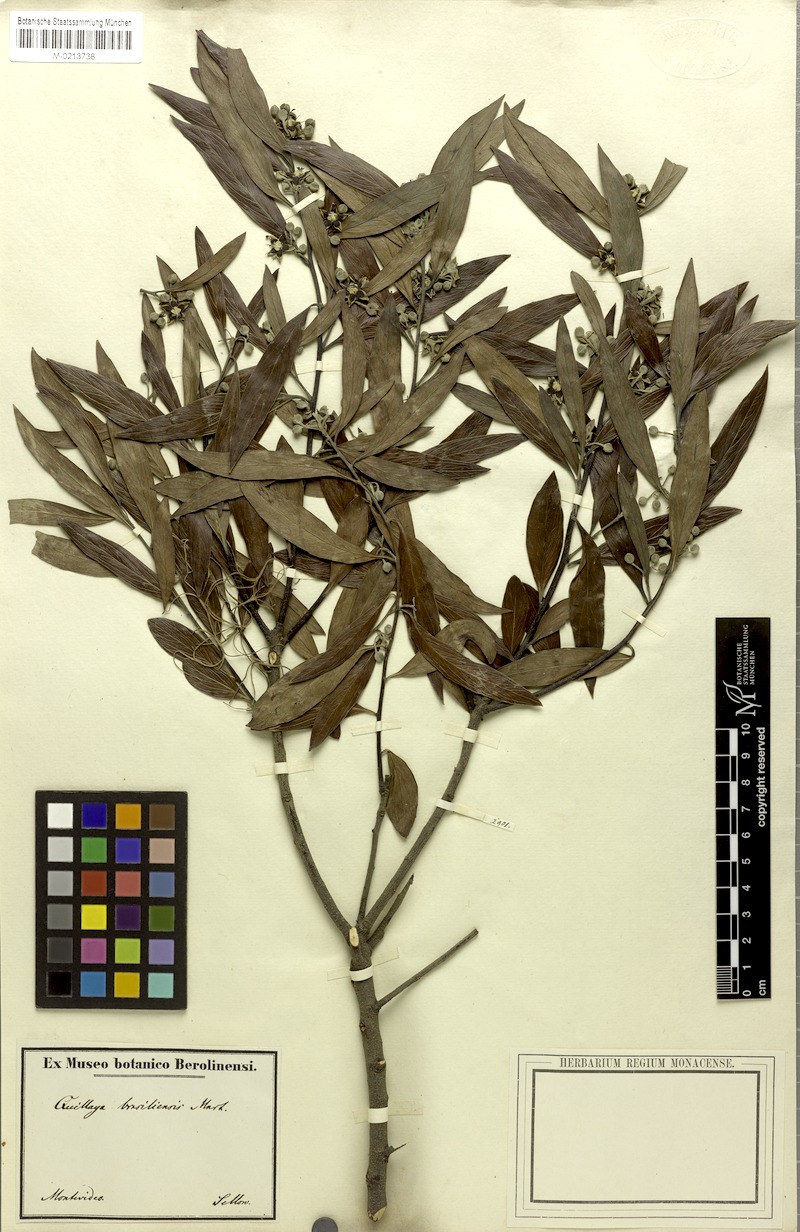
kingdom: Plantae
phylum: Tracheophyta
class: Magnoliopsida
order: Fabales
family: Quillajaceae
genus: Quillaja
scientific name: Quillaja brasiliensis
